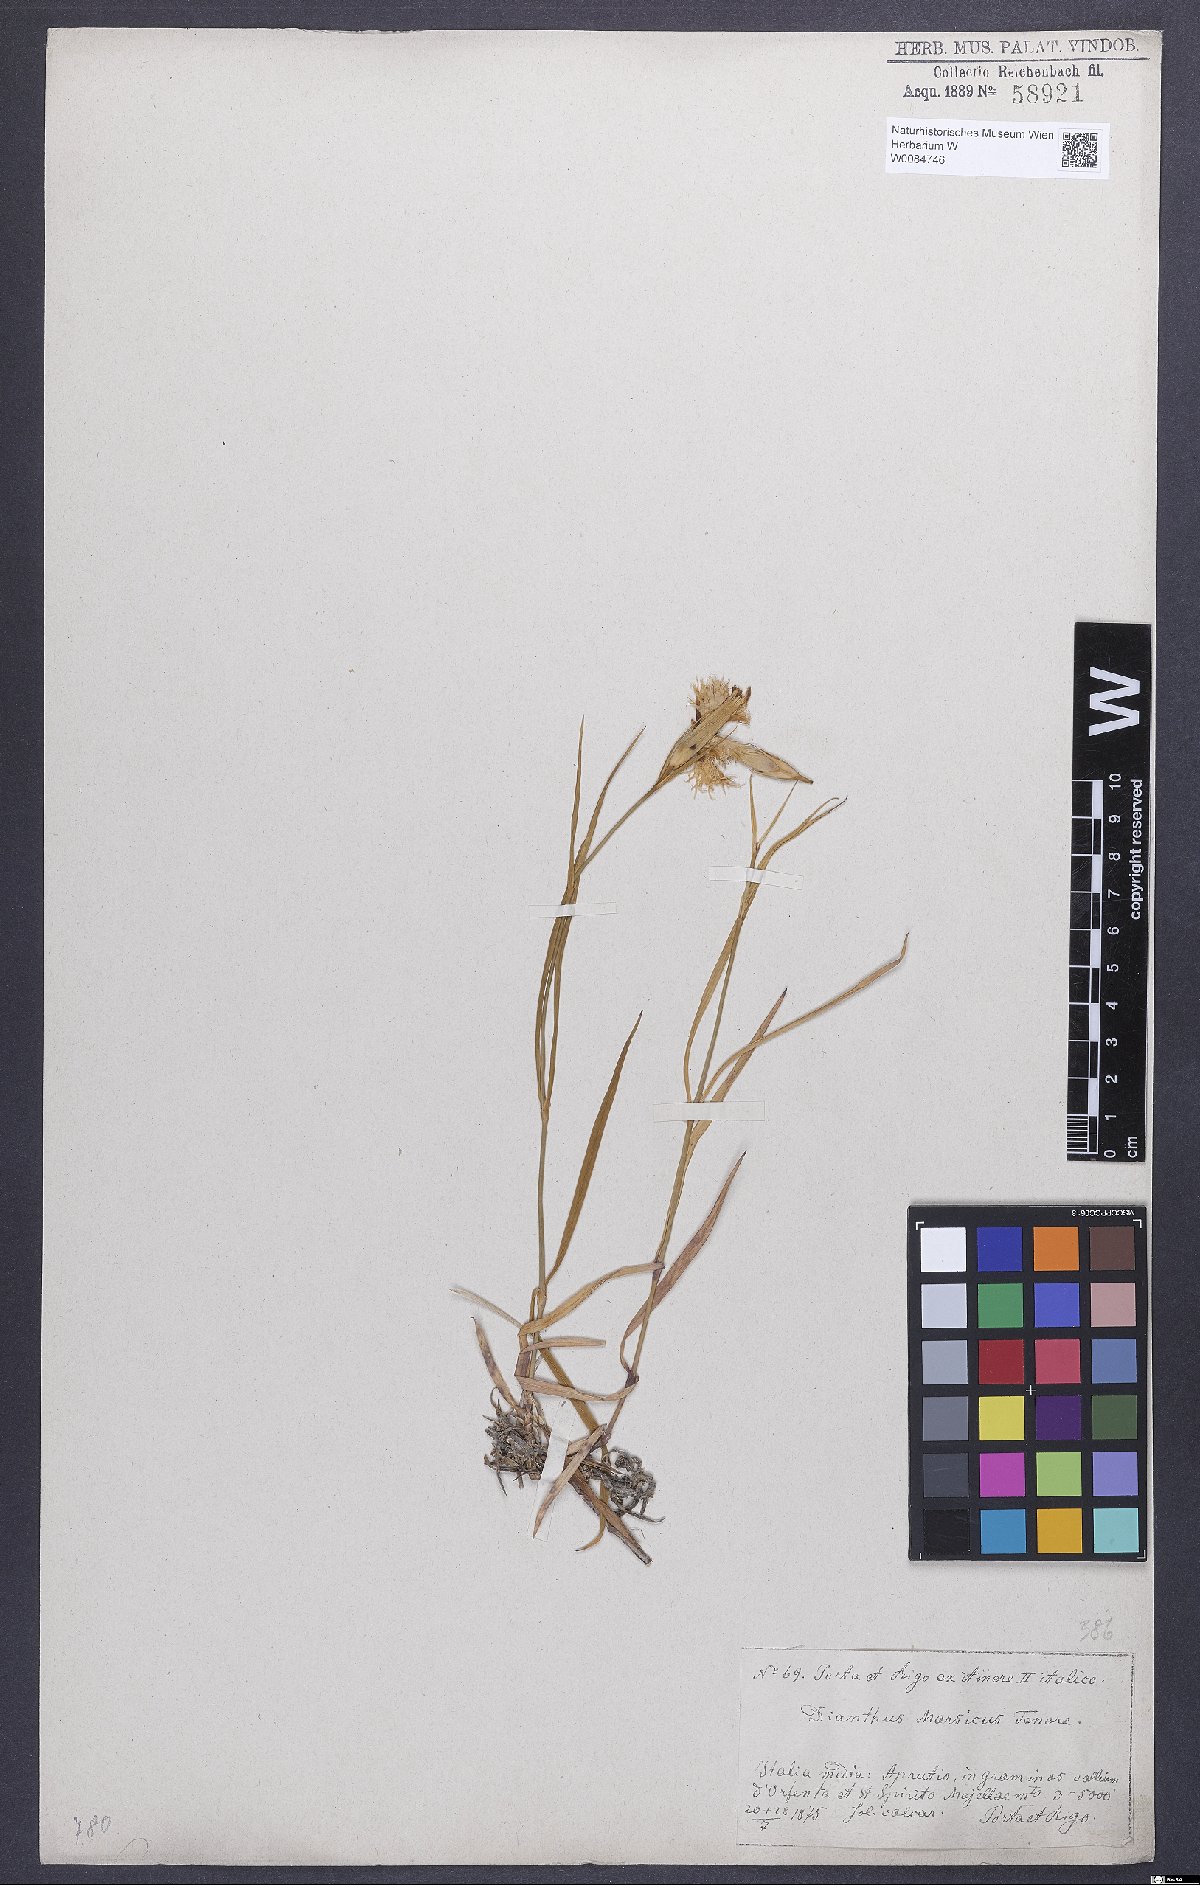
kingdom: Plantae
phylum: Tracheophyta
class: Magnoliopsida
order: Caryophyllales
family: Caryophyllaceae
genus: Dianthus
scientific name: Dianthus hyssopifolius
